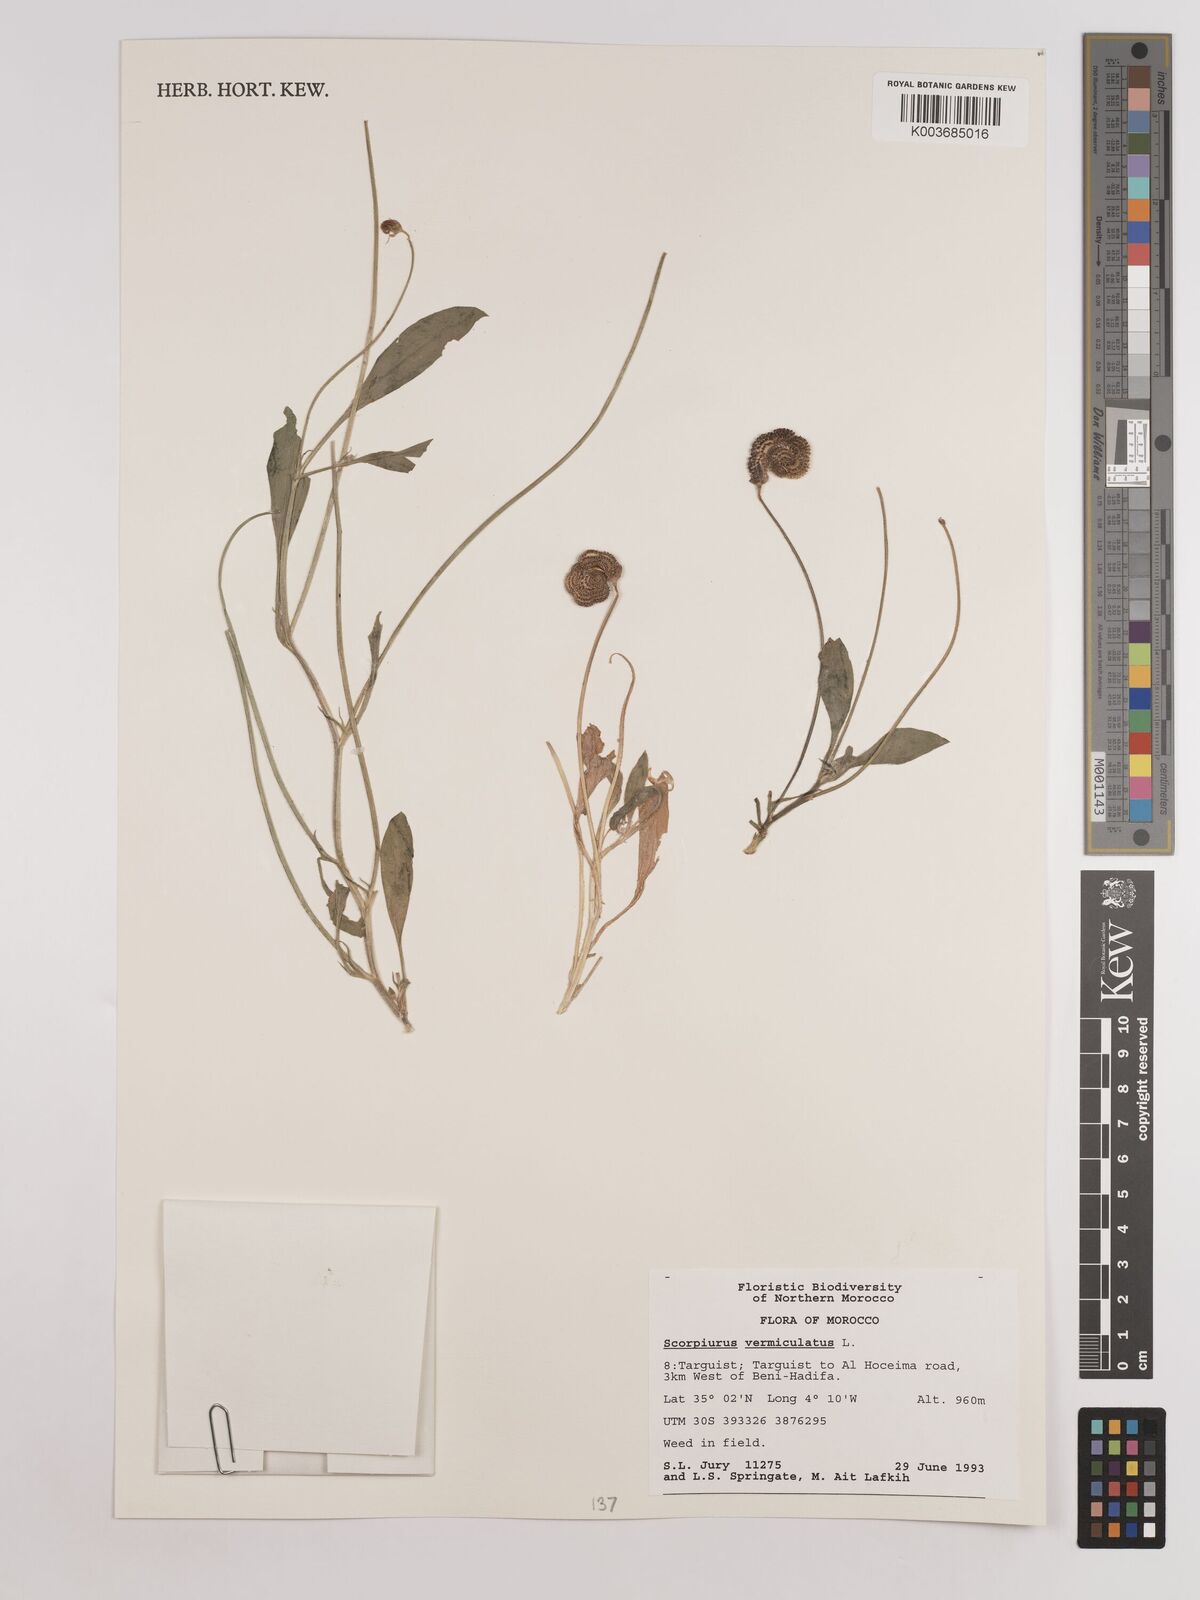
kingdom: Plantae
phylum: Tracheophyta
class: Magnoliopsida
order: Fabales
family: Fabaceae
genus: Scorpiurus
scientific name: Scorpiurus vermiculatus
